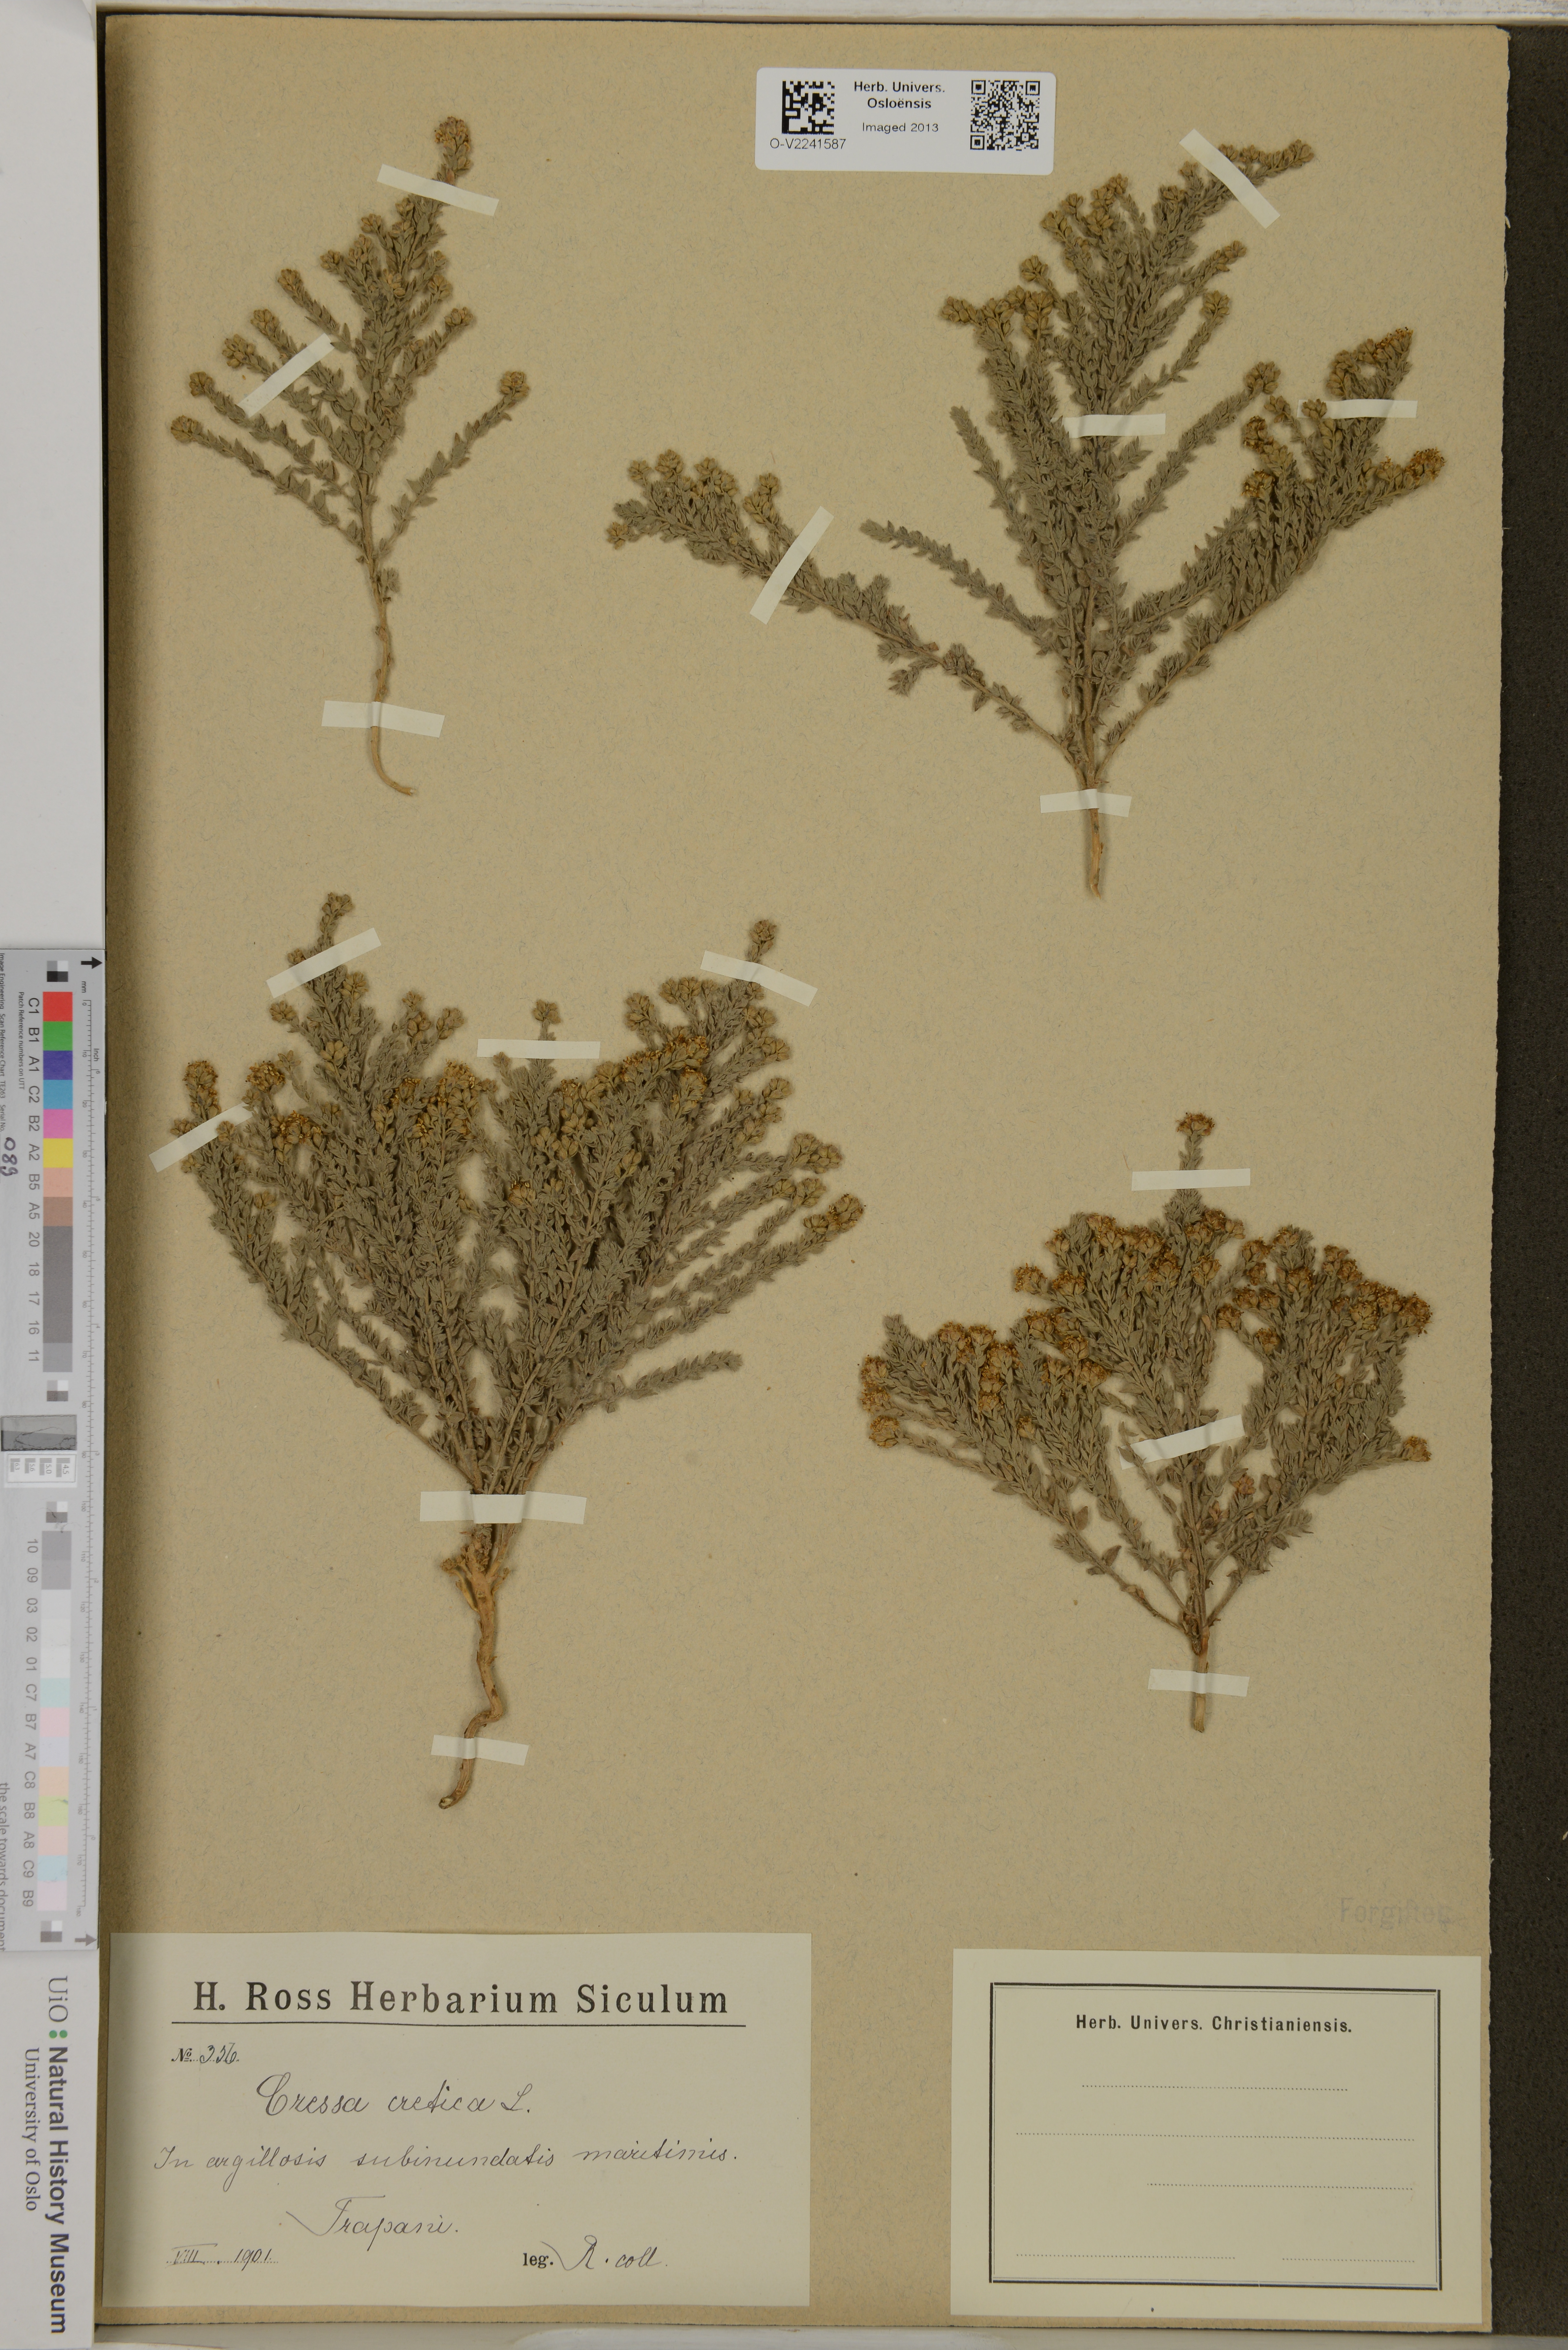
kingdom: Plantae
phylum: Tracheophyta
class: Magnoliopsida
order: Solanales
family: Convolvulaceae
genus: Cressa
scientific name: Cressa cretica
